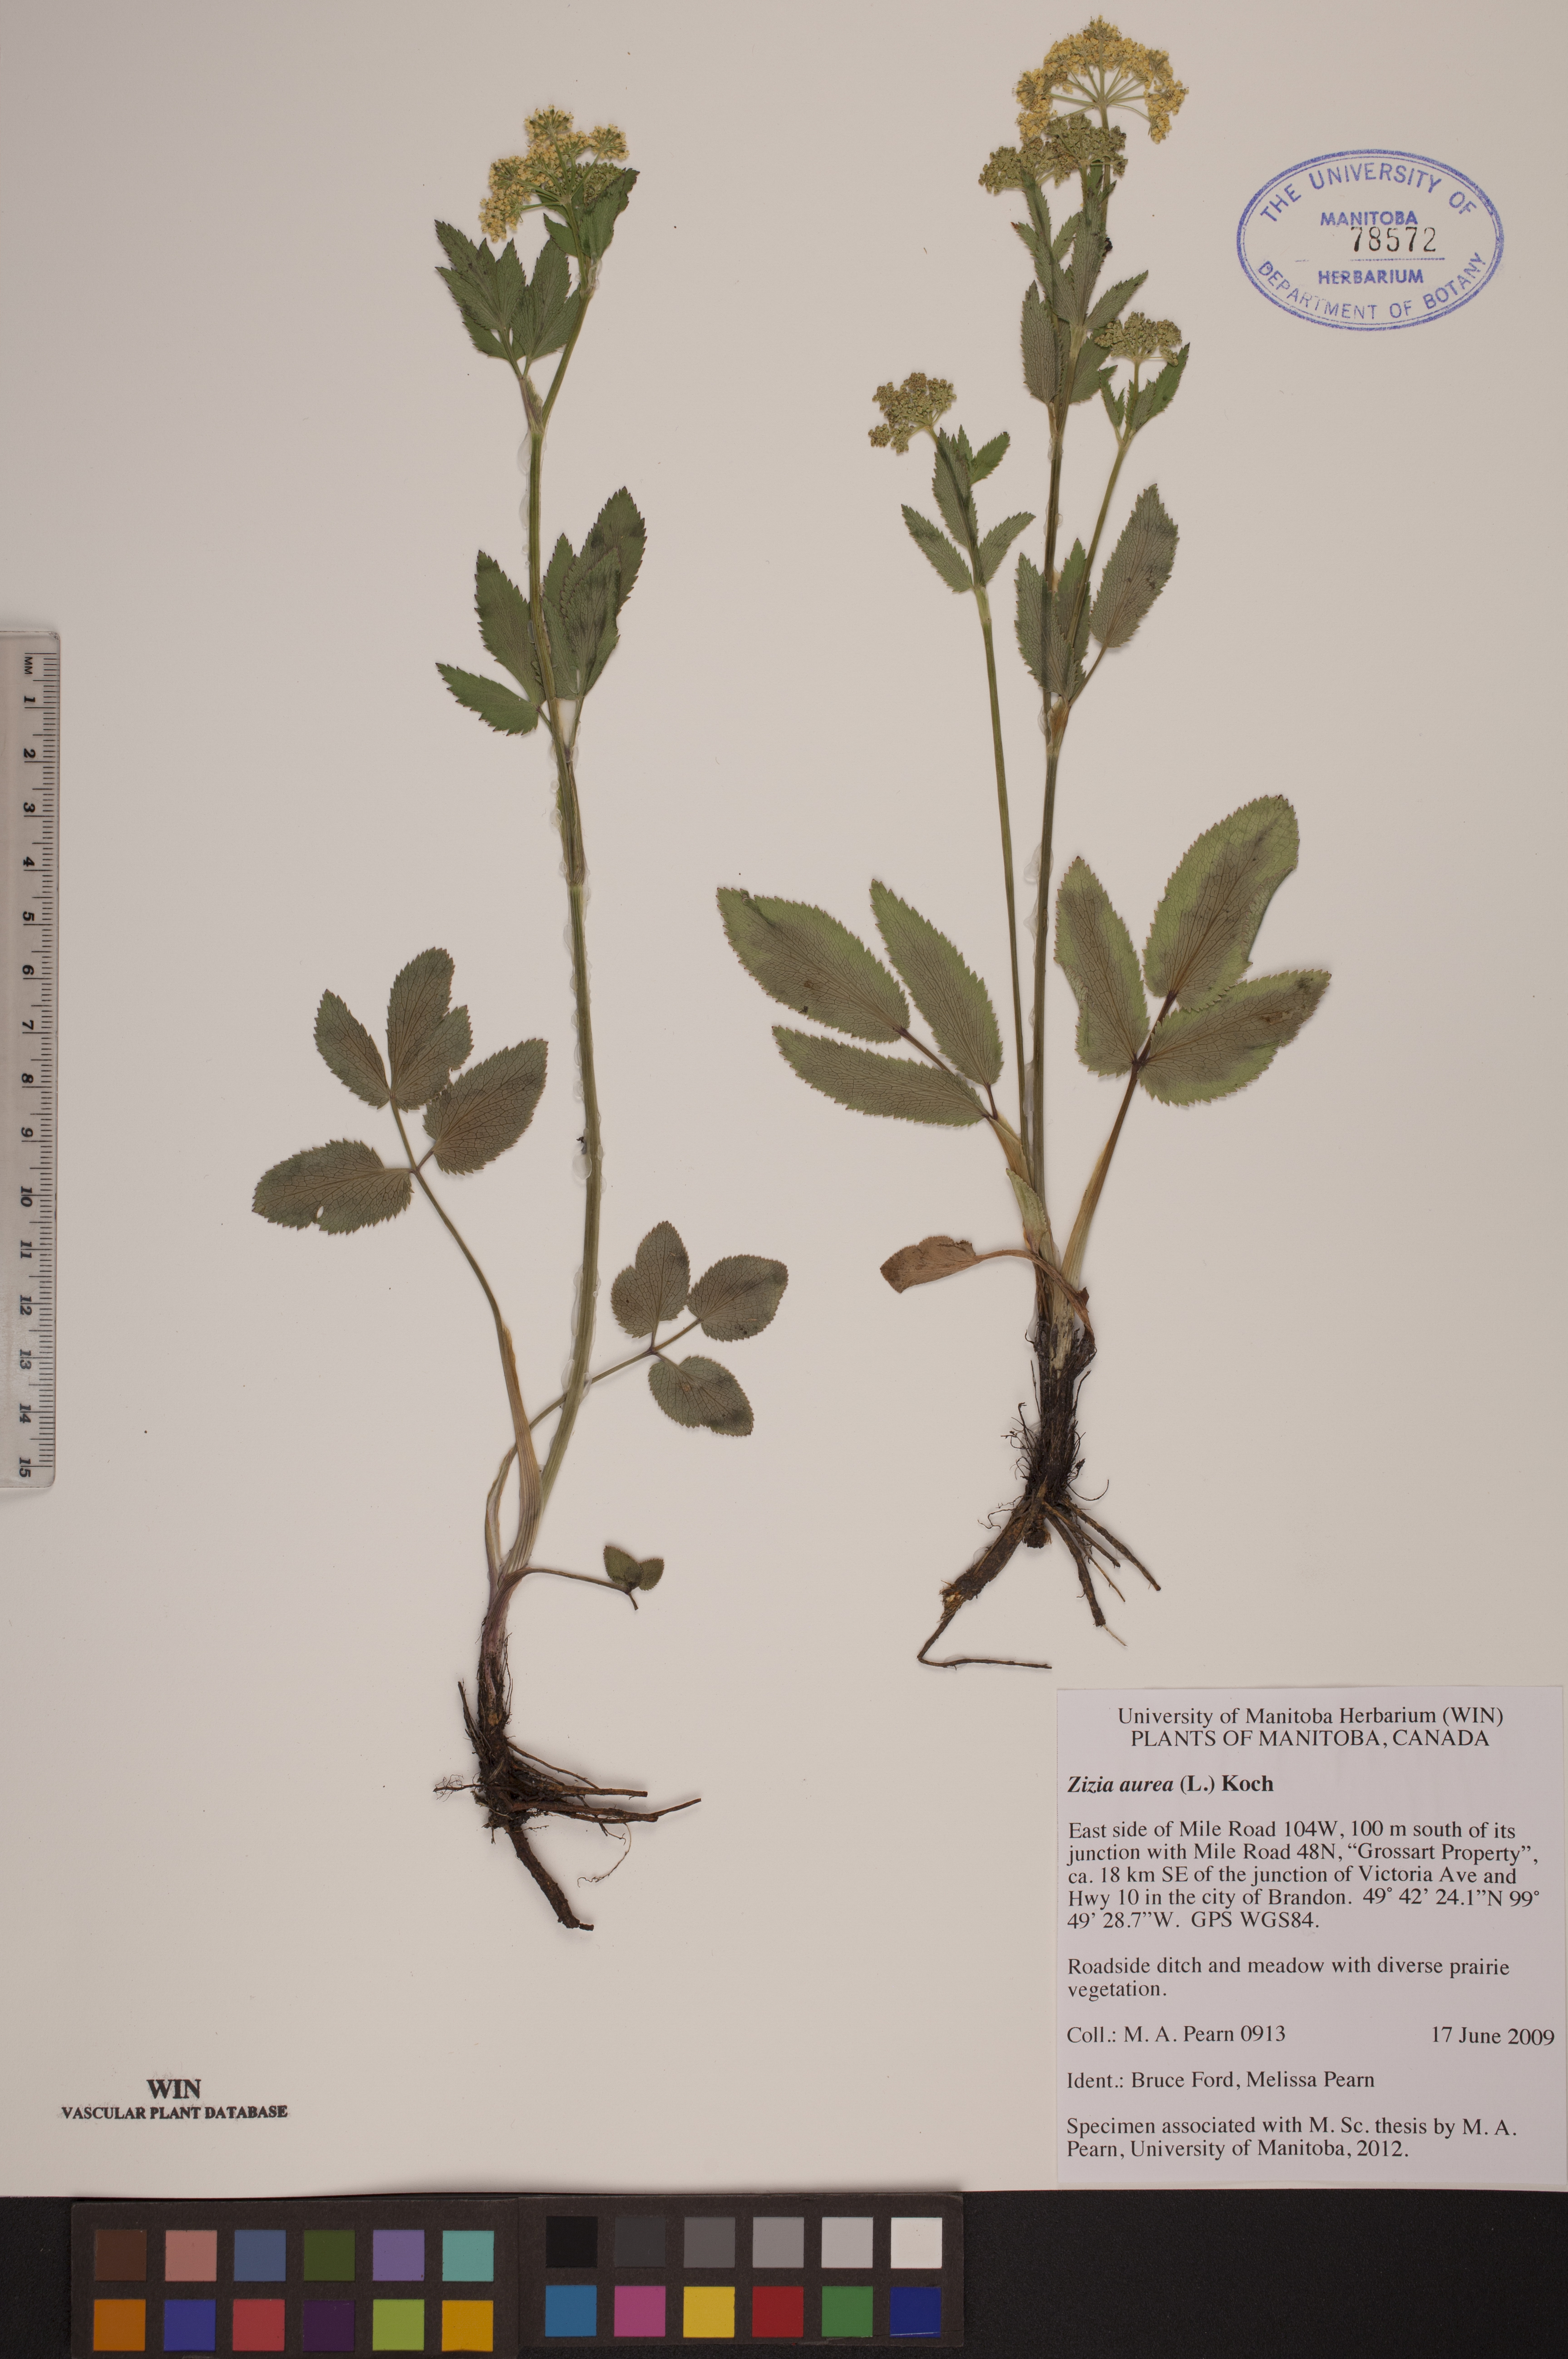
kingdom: Plantae
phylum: Tracheophyta
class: Magnoliopsida
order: Apiales
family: Apiaceae
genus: Zizia
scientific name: Zizia aurea
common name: Golden alexanders
